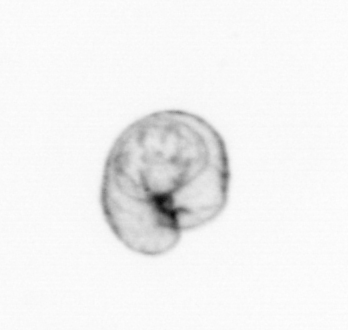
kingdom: Chromista
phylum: Myzozoa
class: Dinophyceae
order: Noctilucales
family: Noctilucaceae
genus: Noctiluca
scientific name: Noctiluca scintillans
